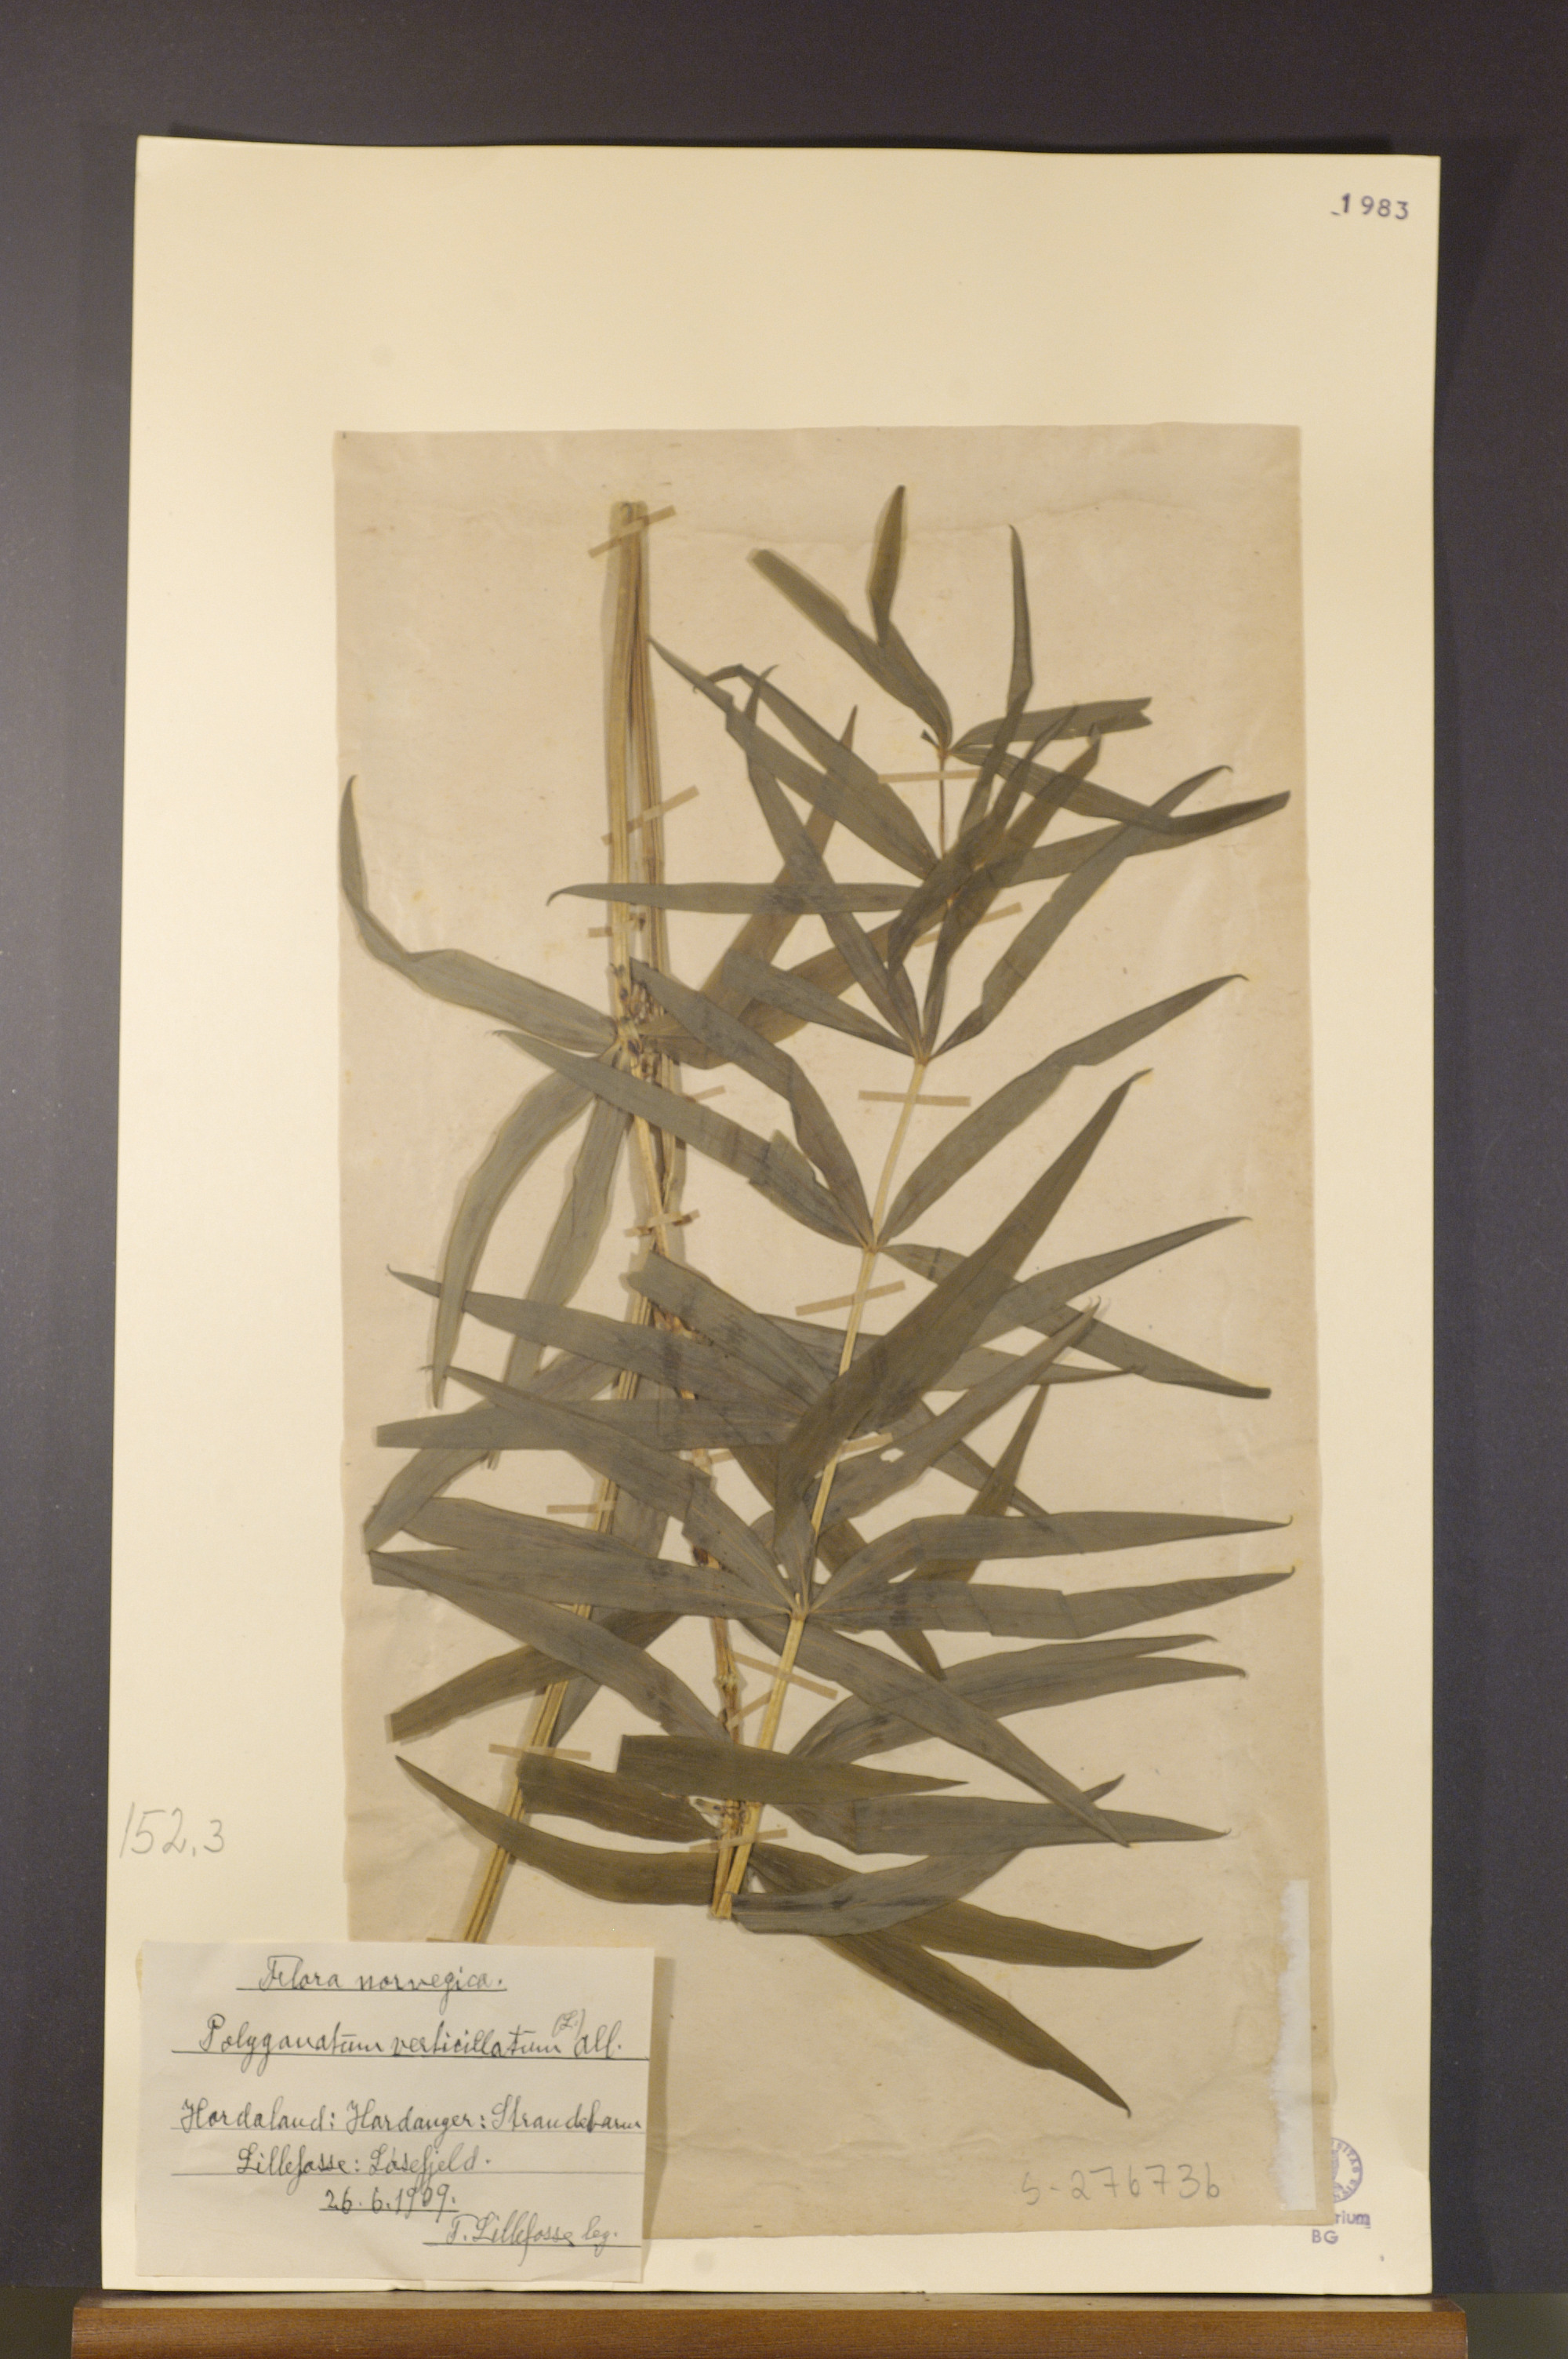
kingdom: Plantae
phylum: Tracheophyta
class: Liliopsida
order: Asparagales
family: Asparagaceae
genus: Polygonatum
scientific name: Polygonatum verticillatum
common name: Whorled solomon's-seal
